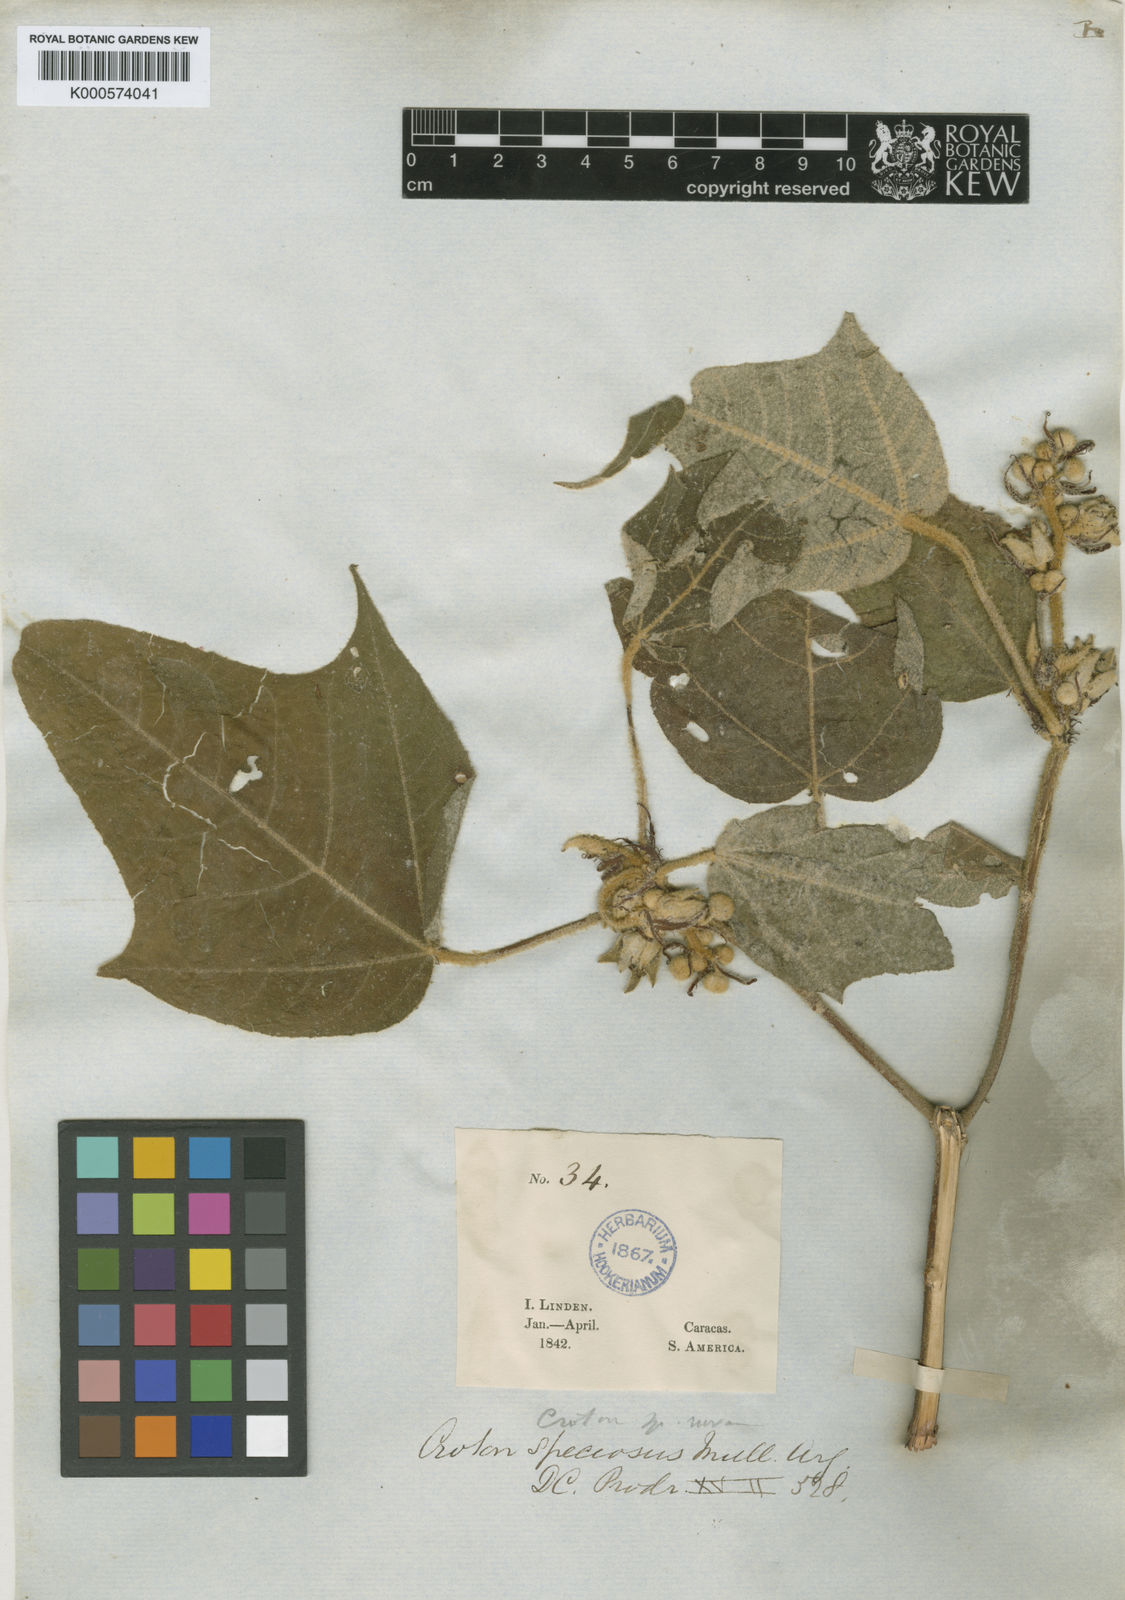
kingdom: Plantae
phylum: Tracheophyta
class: Magnoliopsida
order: Malpighiales
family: Euphorbiaceae
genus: Croton
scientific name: Croton
